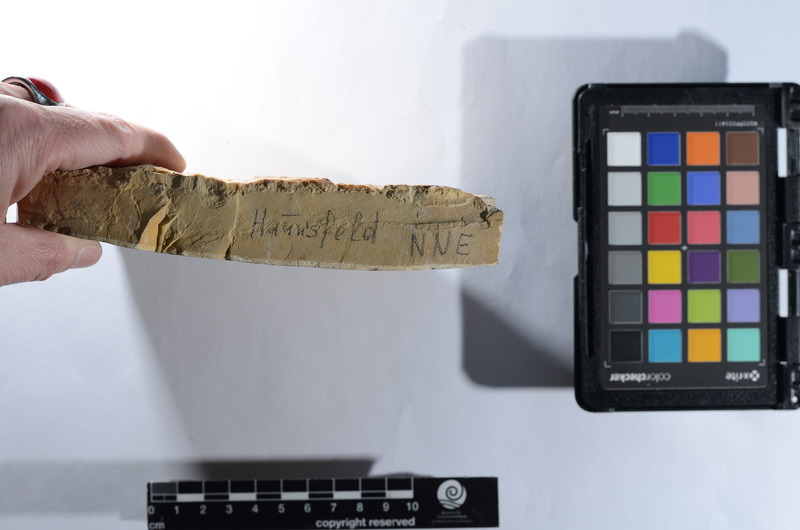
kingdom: Animalia
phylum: Chordata
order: Amiiformes
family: Ionoscopidae
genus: Ionoscopus
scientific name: Ionoscopus
